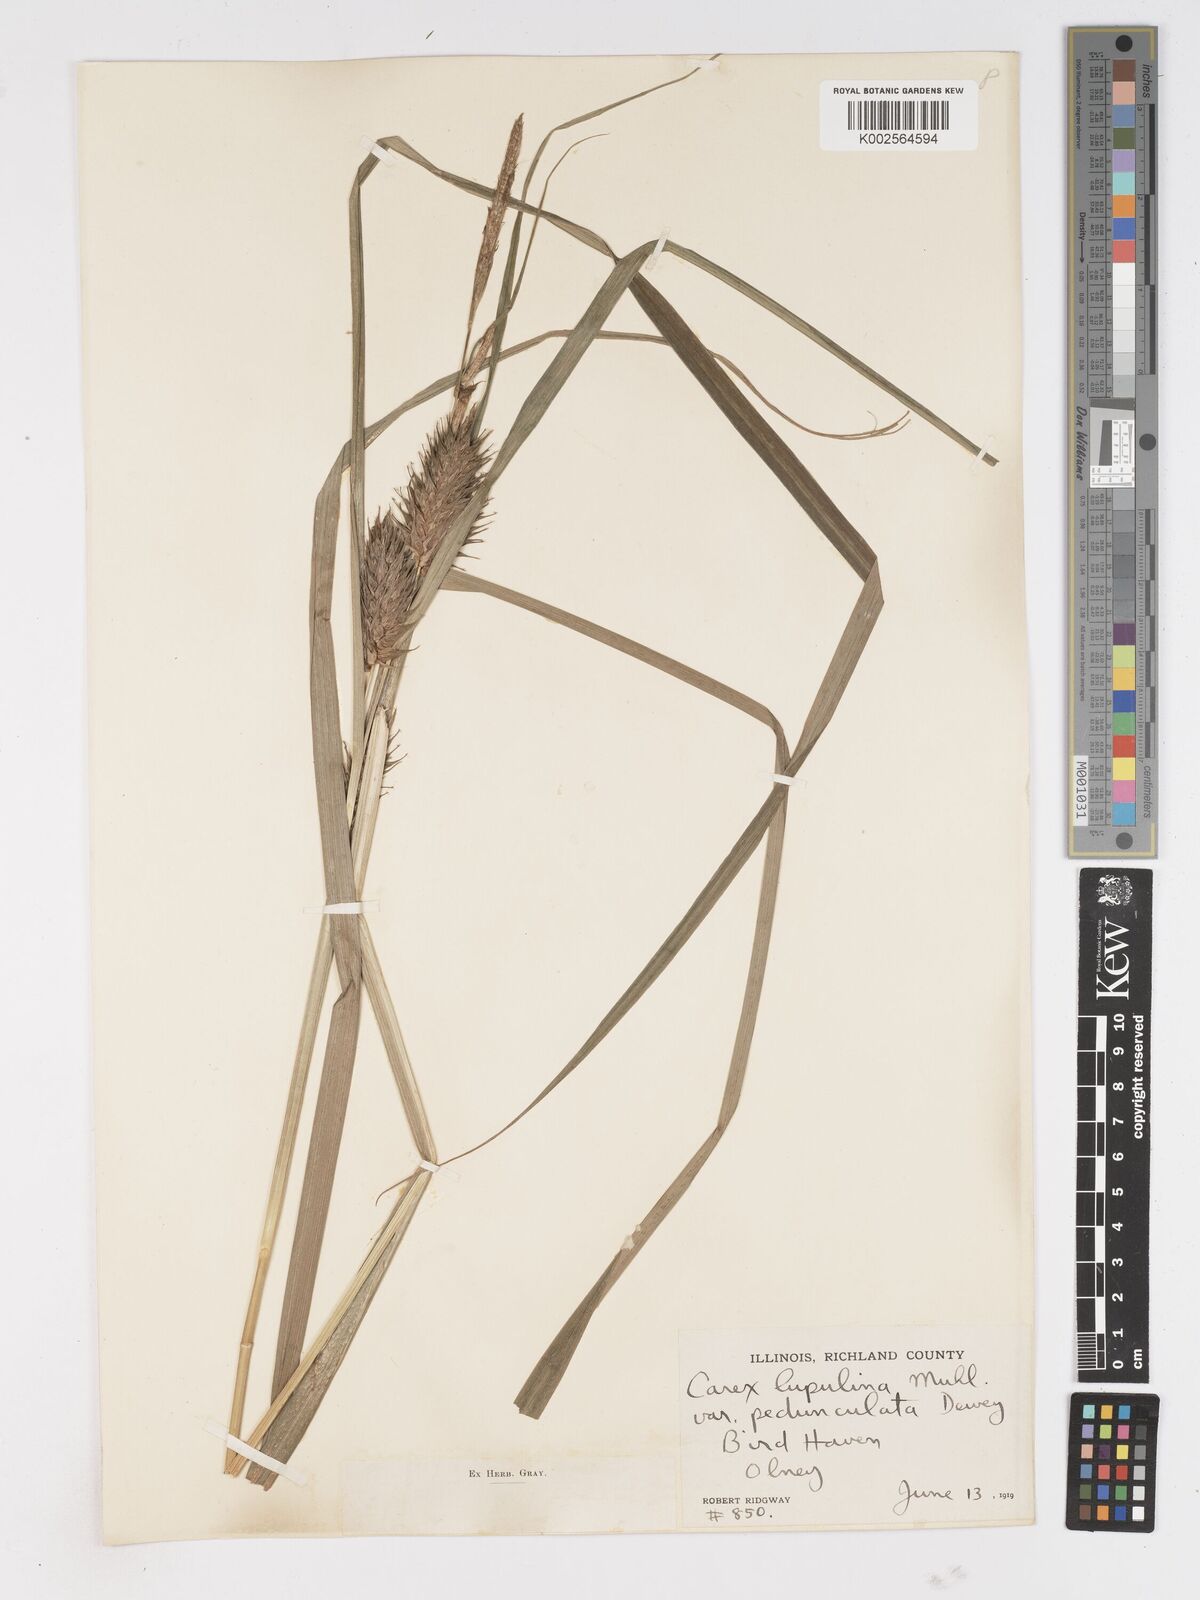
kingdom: Plantae
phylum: Tracheophyta
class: Liliopsida
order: Poales
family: Cyperaceae
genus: Carex
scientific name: Carex lupulina
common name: Hop sedge
